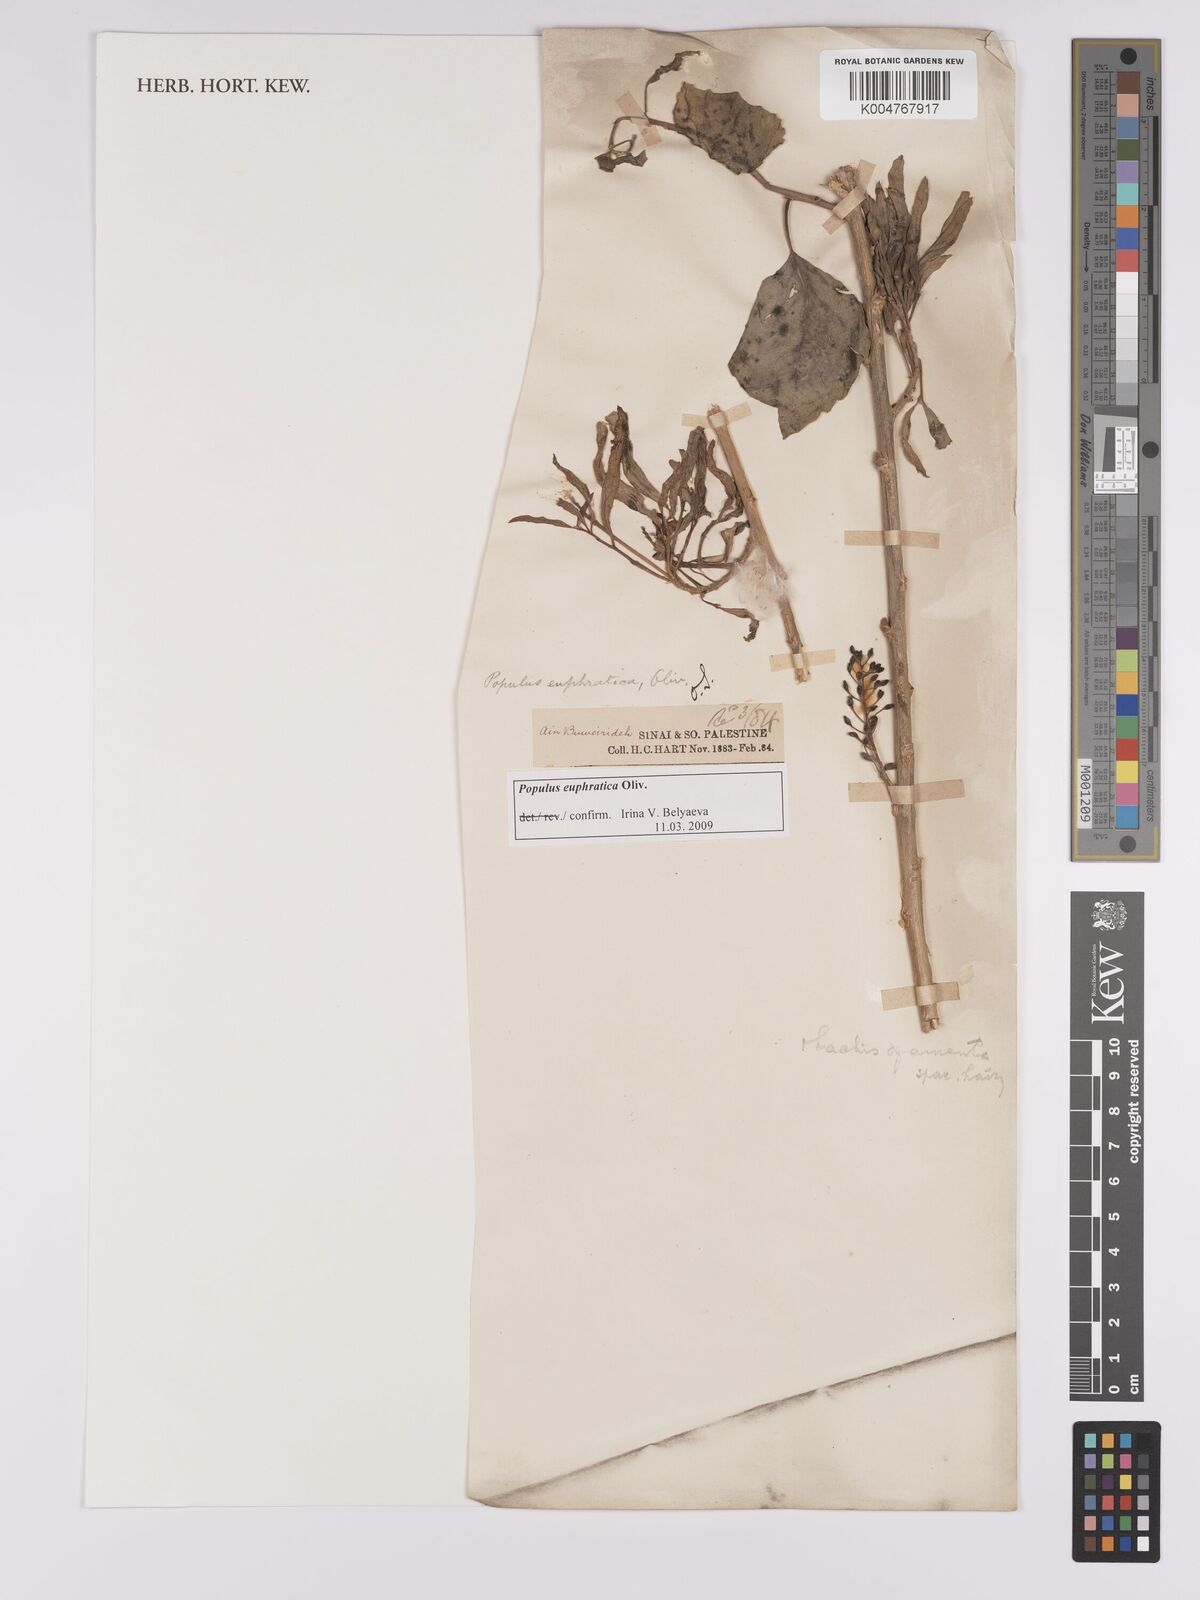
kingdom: Plantae
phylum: Tracheophyta
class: Magnoliopsida
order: Malpighiales
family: Salicaceae
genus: Populus
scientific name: Populus euphratica
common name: Euphrates poplar
